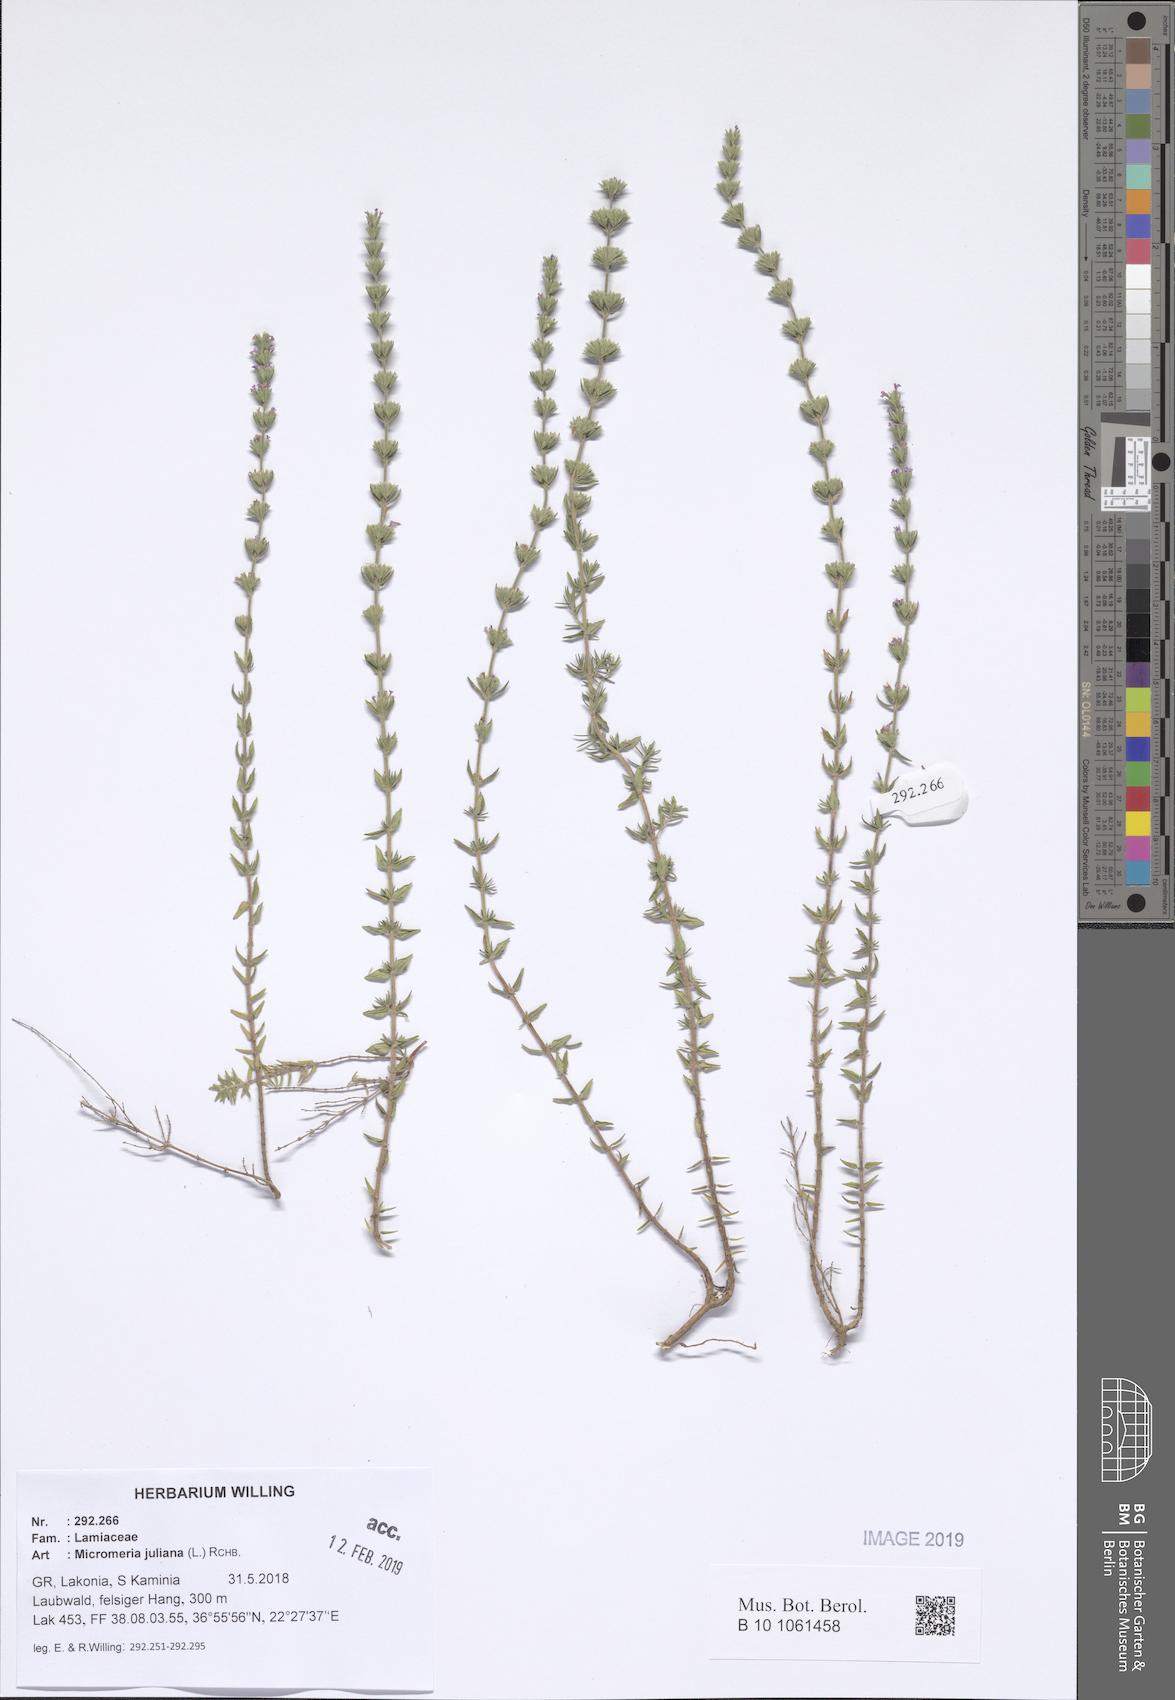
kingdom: Plantae
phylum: Tracheophyta
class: Magnoliopsida
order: Lamiales
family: Lamiaceae
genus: Micromeria
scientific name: Micromeria juliana
